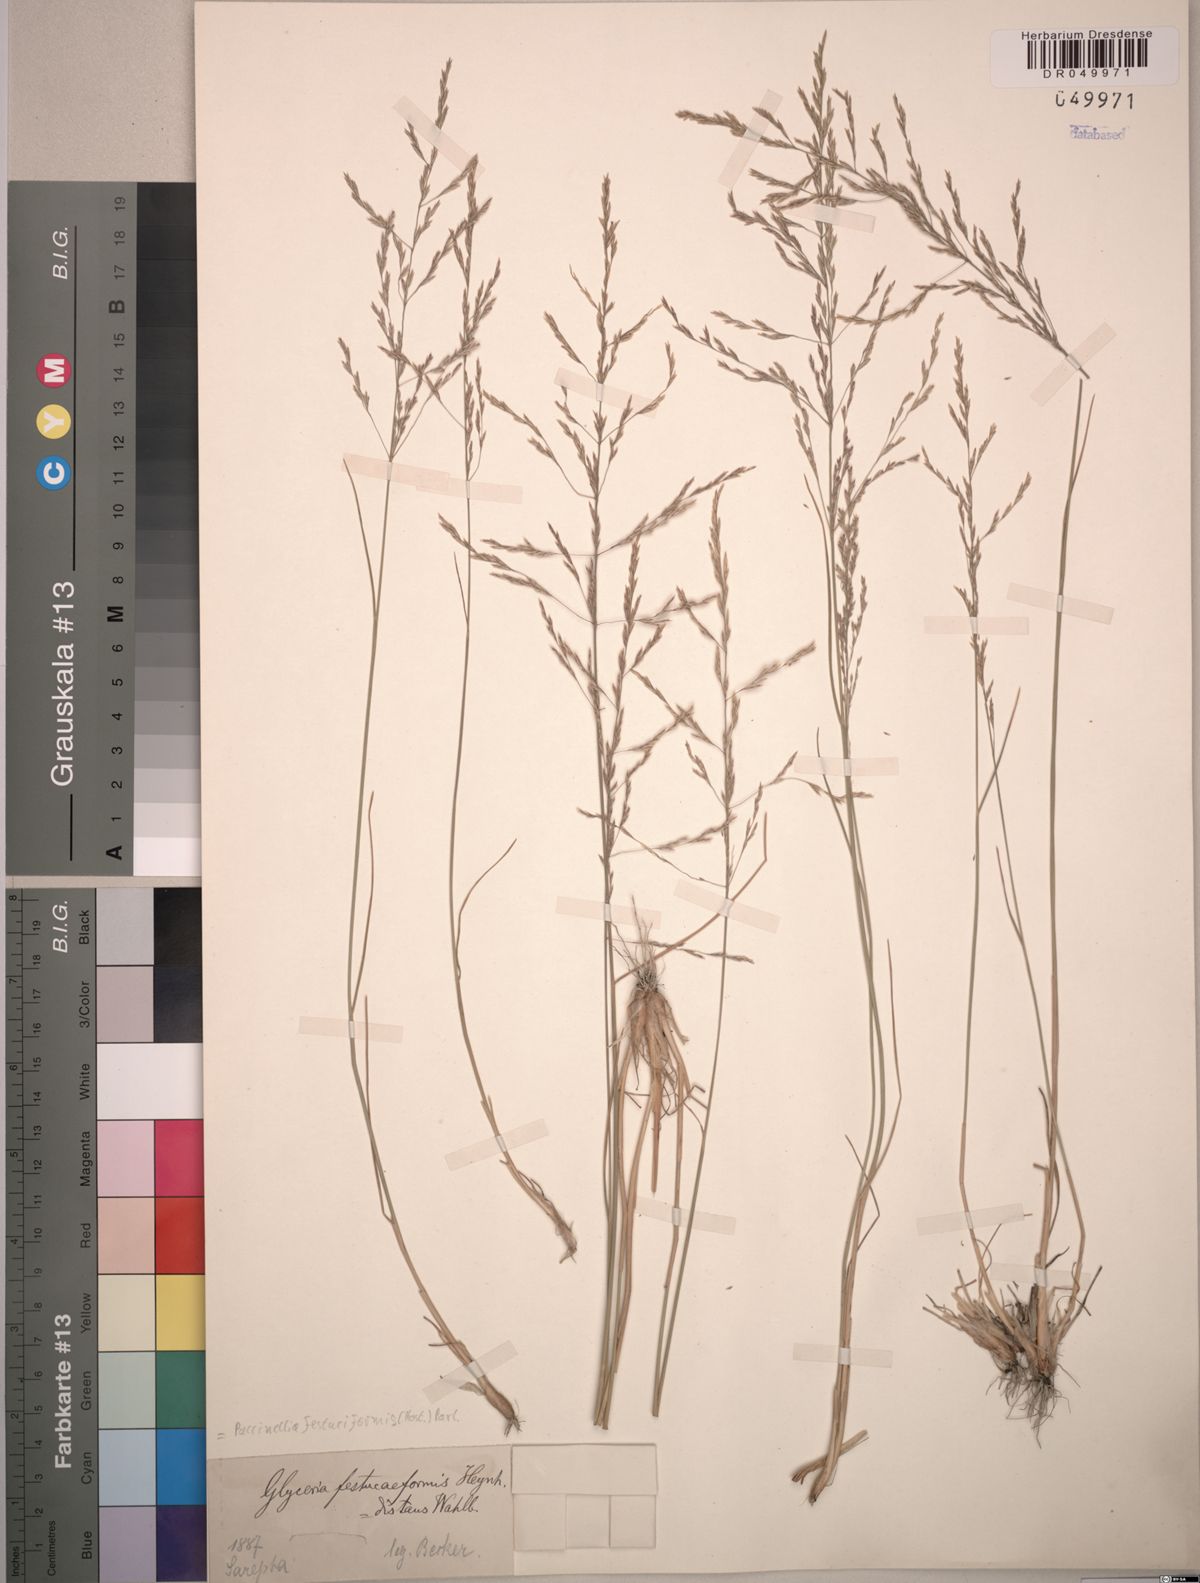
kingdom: Plantae
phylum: Tracheophyta
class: Liliopsida
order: Poales
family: Poaceae
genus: Puccinellia
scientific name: Puccinellia festuciformis
